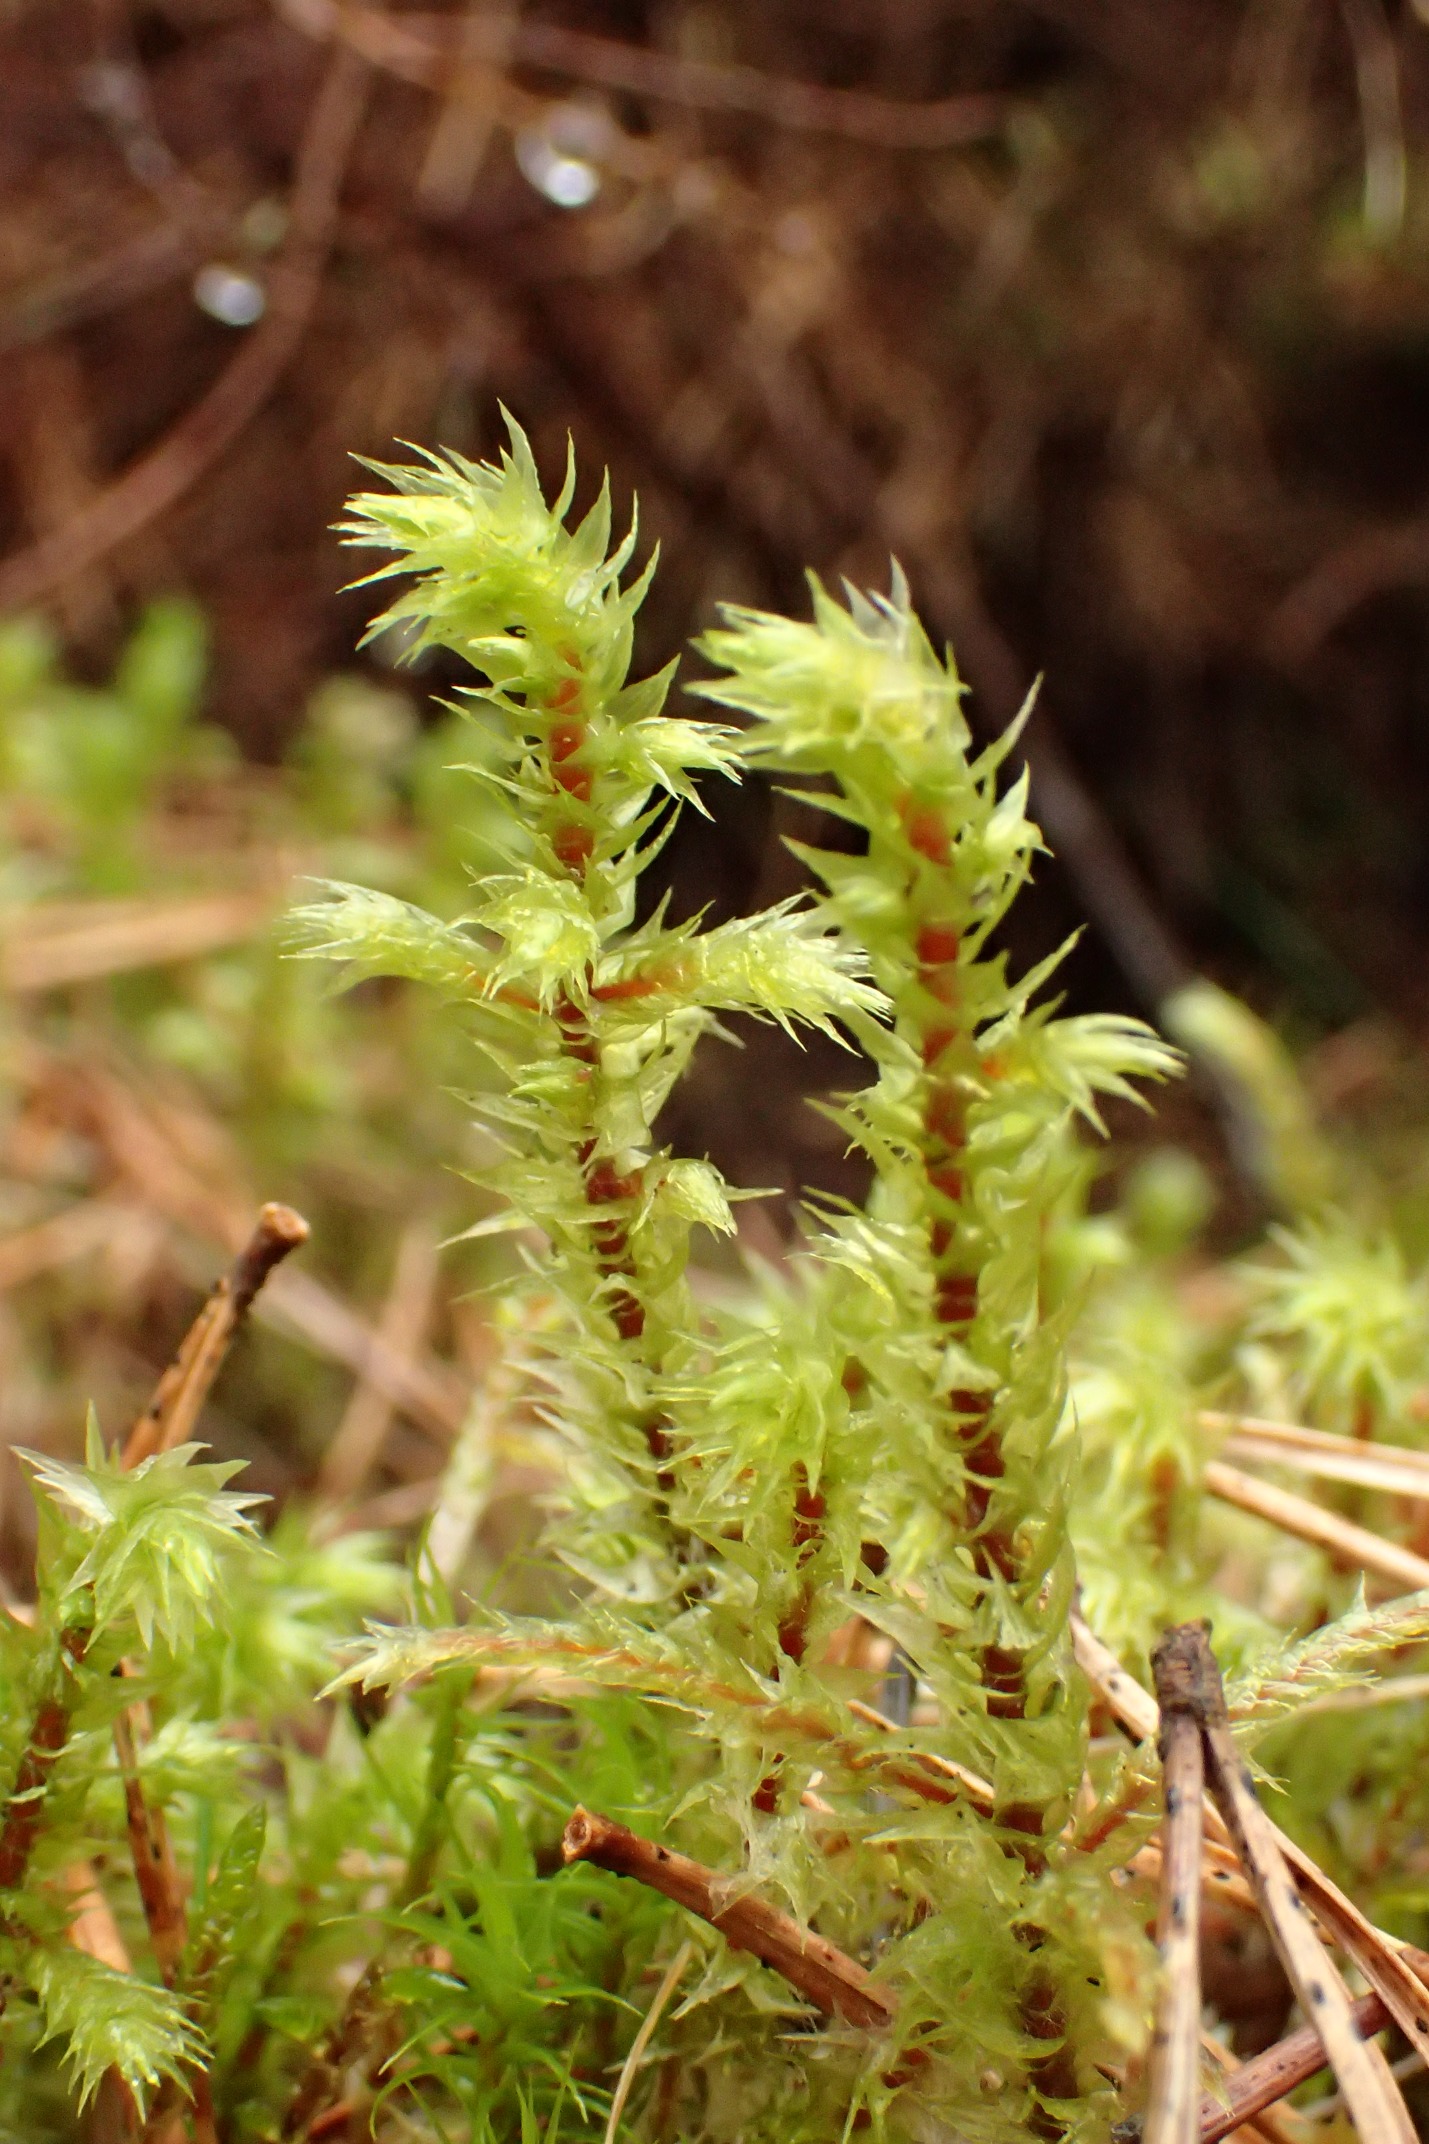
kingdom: Plantae
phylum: Bryophyta
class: Bryopsida
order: Hypnales
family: Hylocomiaceae
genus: Hylocomiadelphus
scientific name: Hylocomiadelphus triquetrus
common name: Stor kransemos
